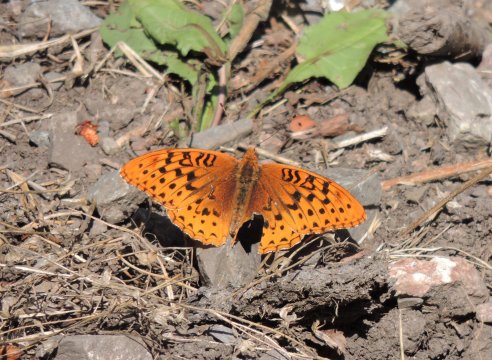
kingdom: Animalia
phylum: Arthropoda
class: Insecta
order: Lepidoptera
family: Nymphalidae
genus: Speyeria
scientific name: Speyeria cybele
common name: Great Spangled Fritillary
